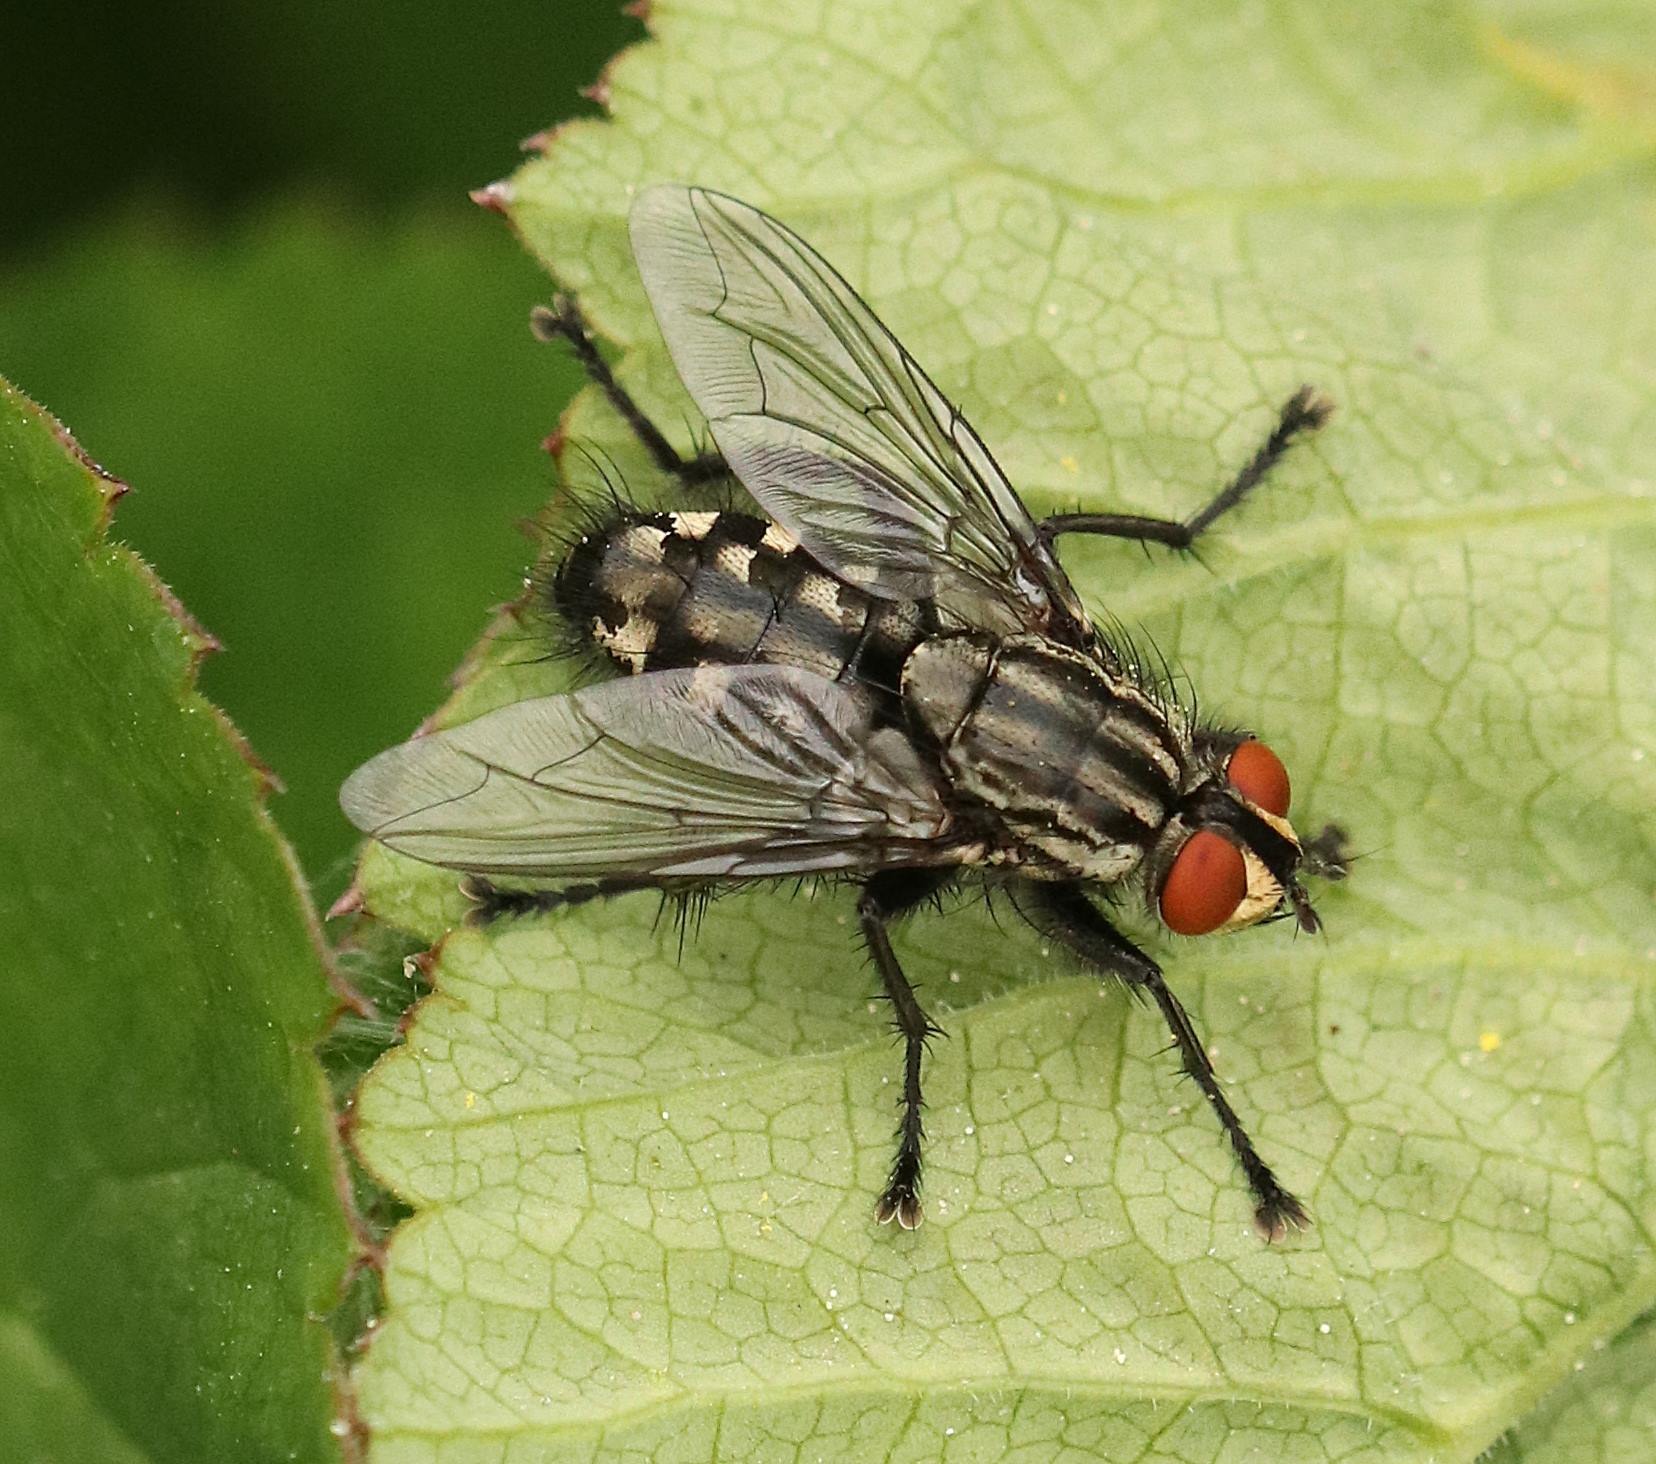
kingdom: Animalia
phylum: Arthropoda
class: Insecta
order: Diptera
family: Sarcophagidae
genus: Sarcophaga
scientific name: Sarcophaga
